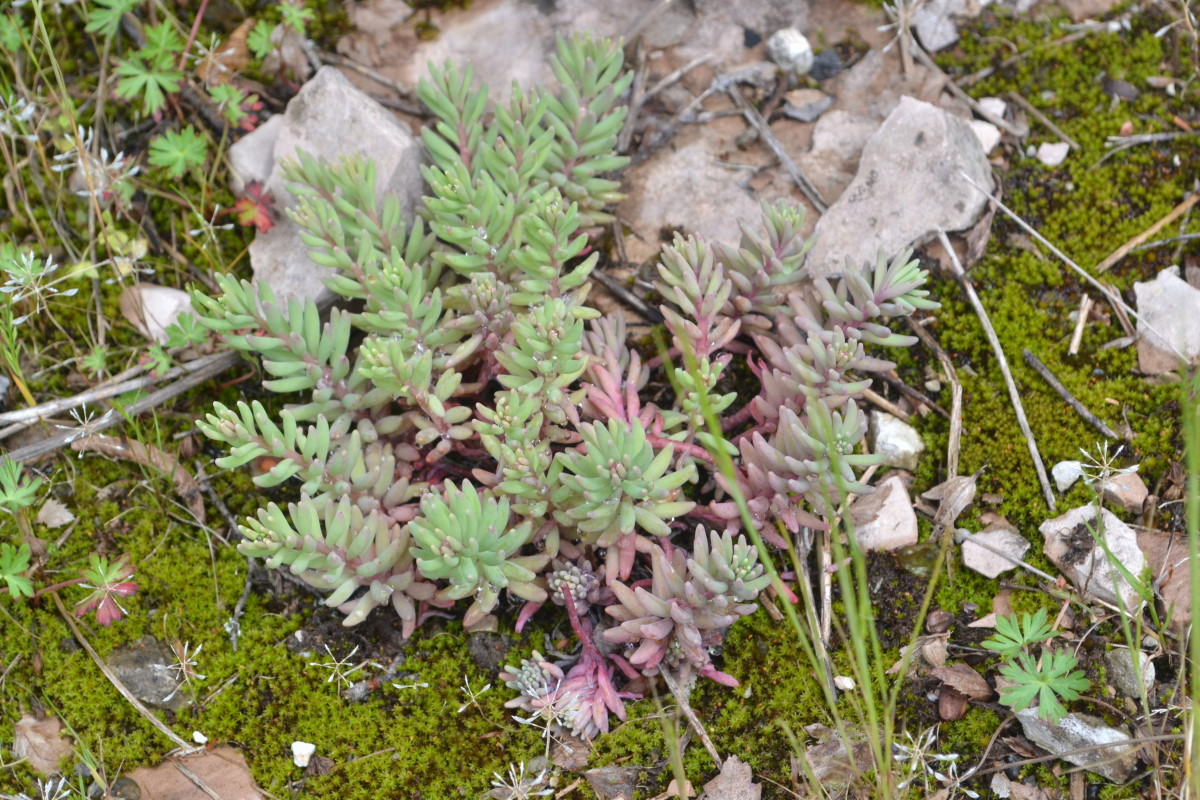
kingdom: Plantae
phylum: Tracheophyta
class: Magnoliopsida
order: Saxifragales
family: Crassulaceae
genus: Sedum
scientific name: Sedum hispanicum
